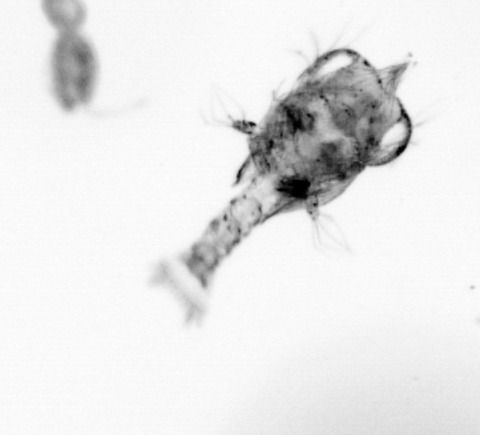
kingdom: Animalia
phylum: Arthropoda
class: Copepoda
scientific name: Copepoda
